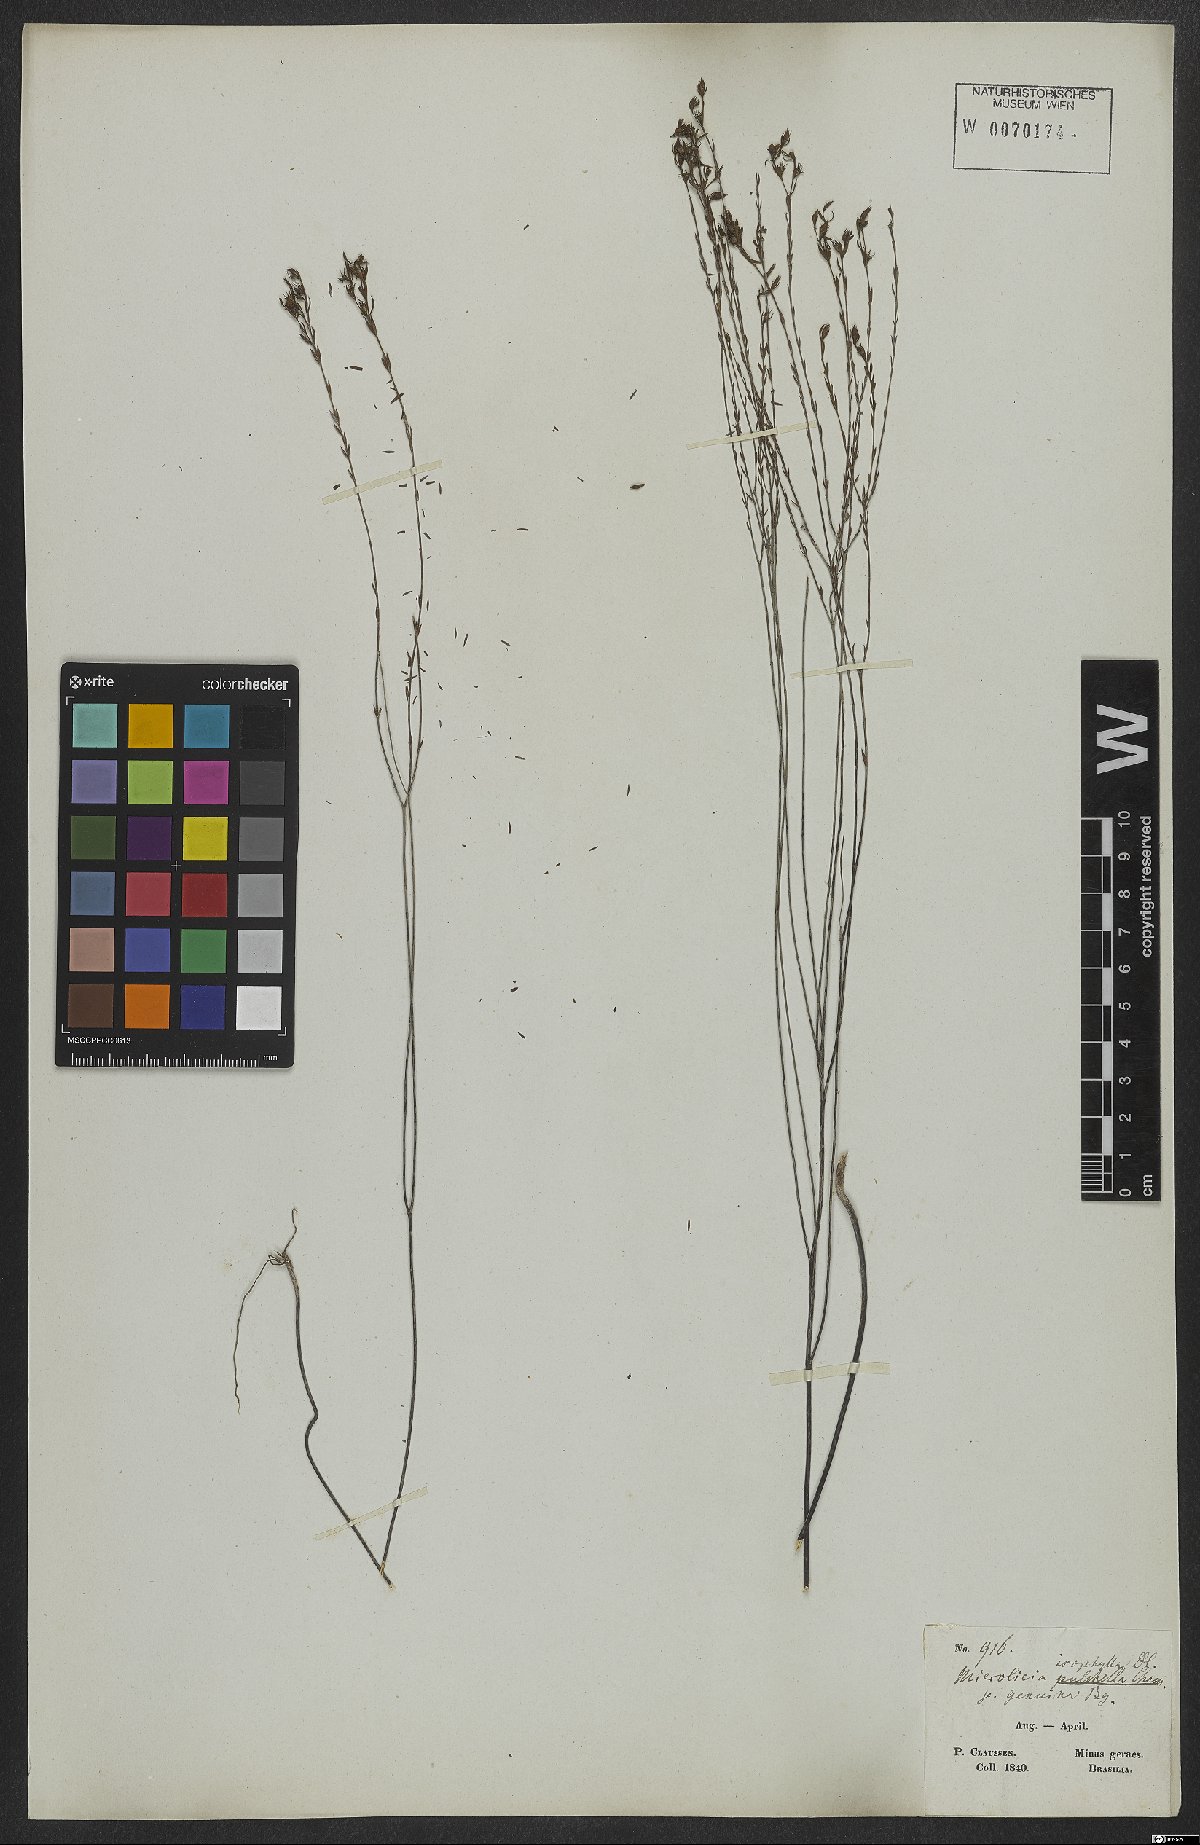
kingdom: Plantae
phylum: Tracheophyta
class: Magnoliopsida
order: Myrtales
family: Melastomataceae
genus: Microlicia
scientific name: Microlicia isophylla
